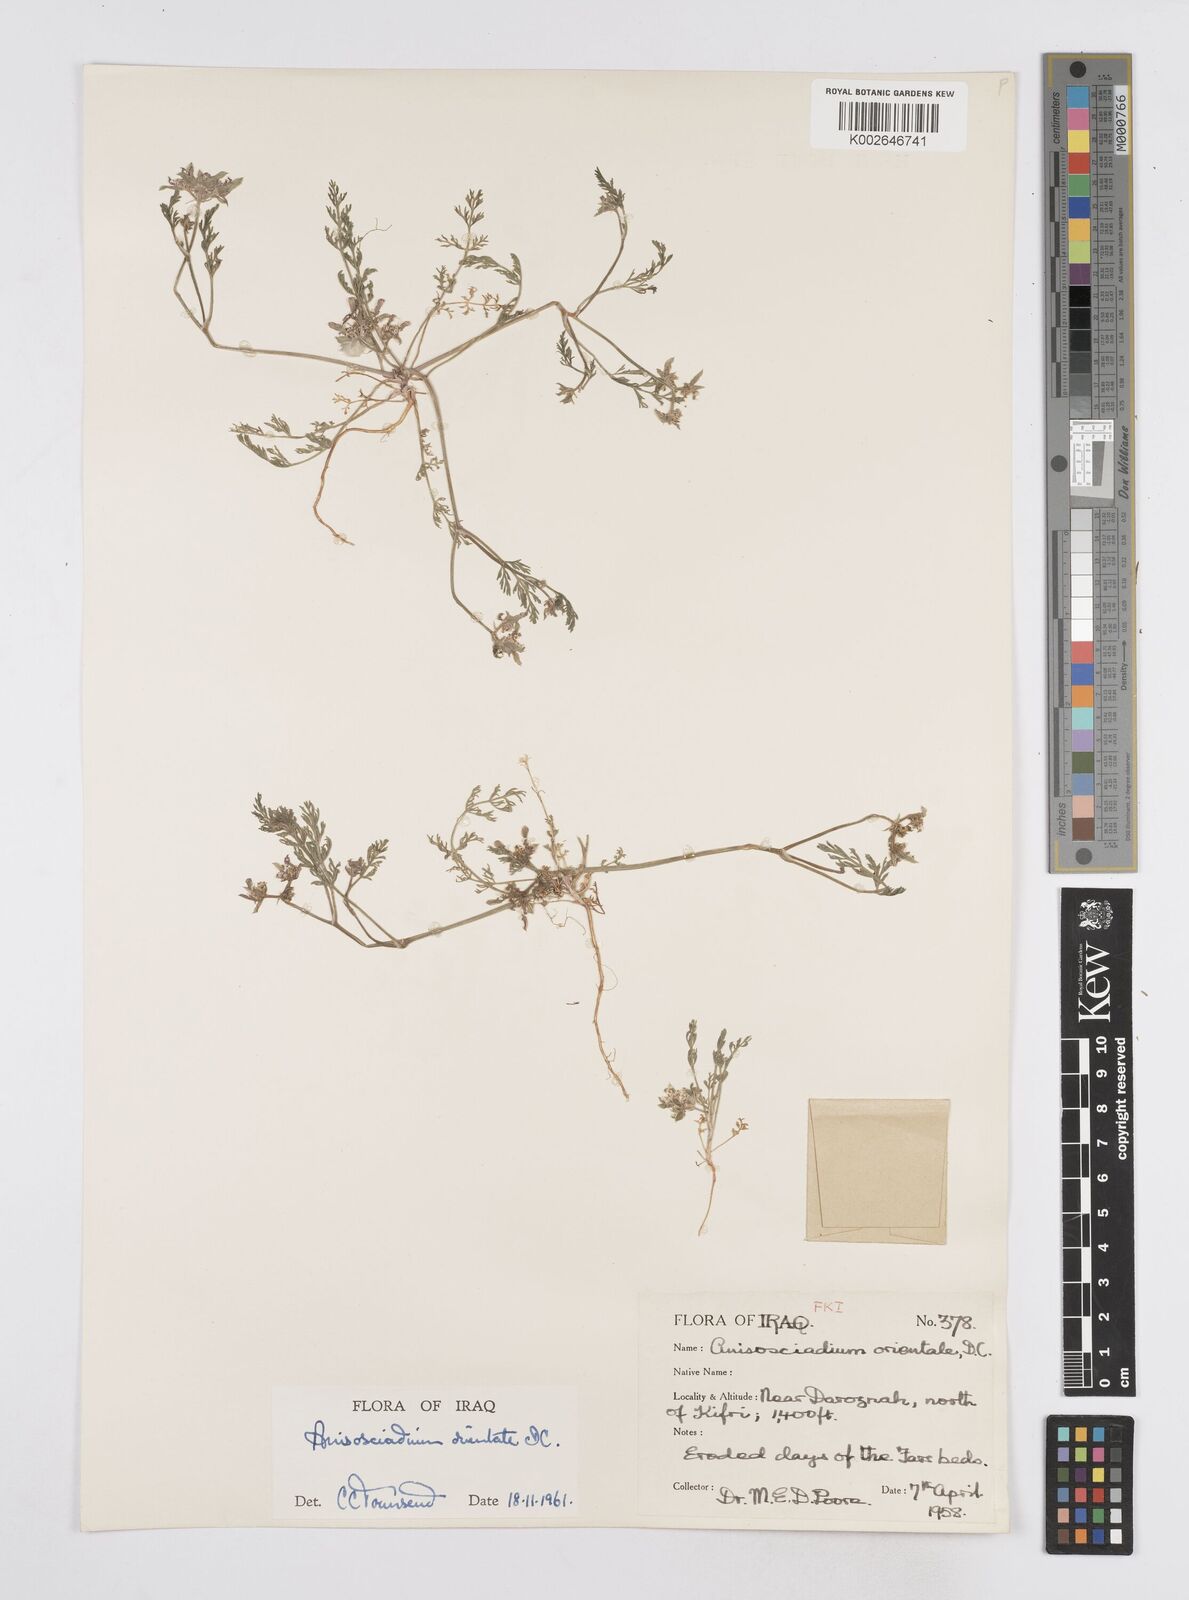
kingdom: Plantae
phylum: Tracheophyta
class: Magnoliopsida
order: Apiales
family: Apiaceae
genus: Anisosciadium
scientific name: Anisosciadium orientale
